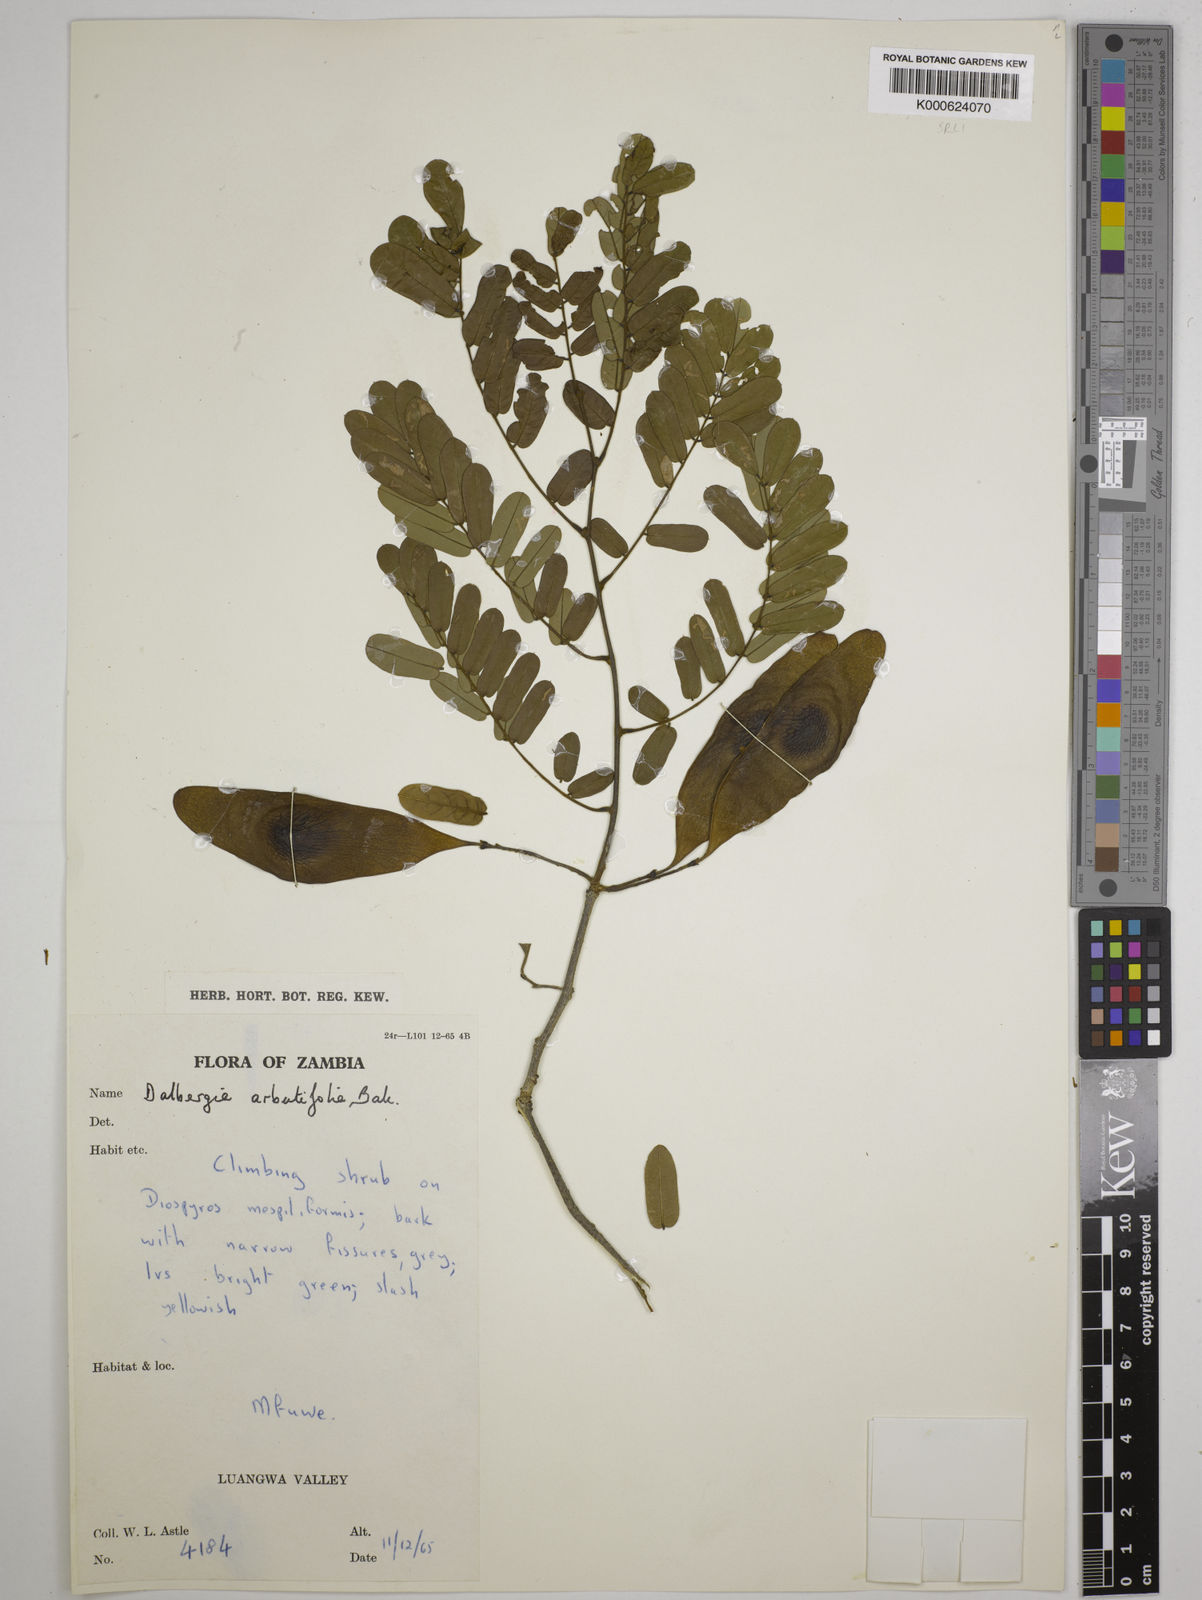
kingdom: Plantae
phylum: Tracheophyta
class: Magnoliopsida
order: Fabales
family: Fabaceae
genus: Dalbergia
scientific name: Dalbergia arbutifolia
